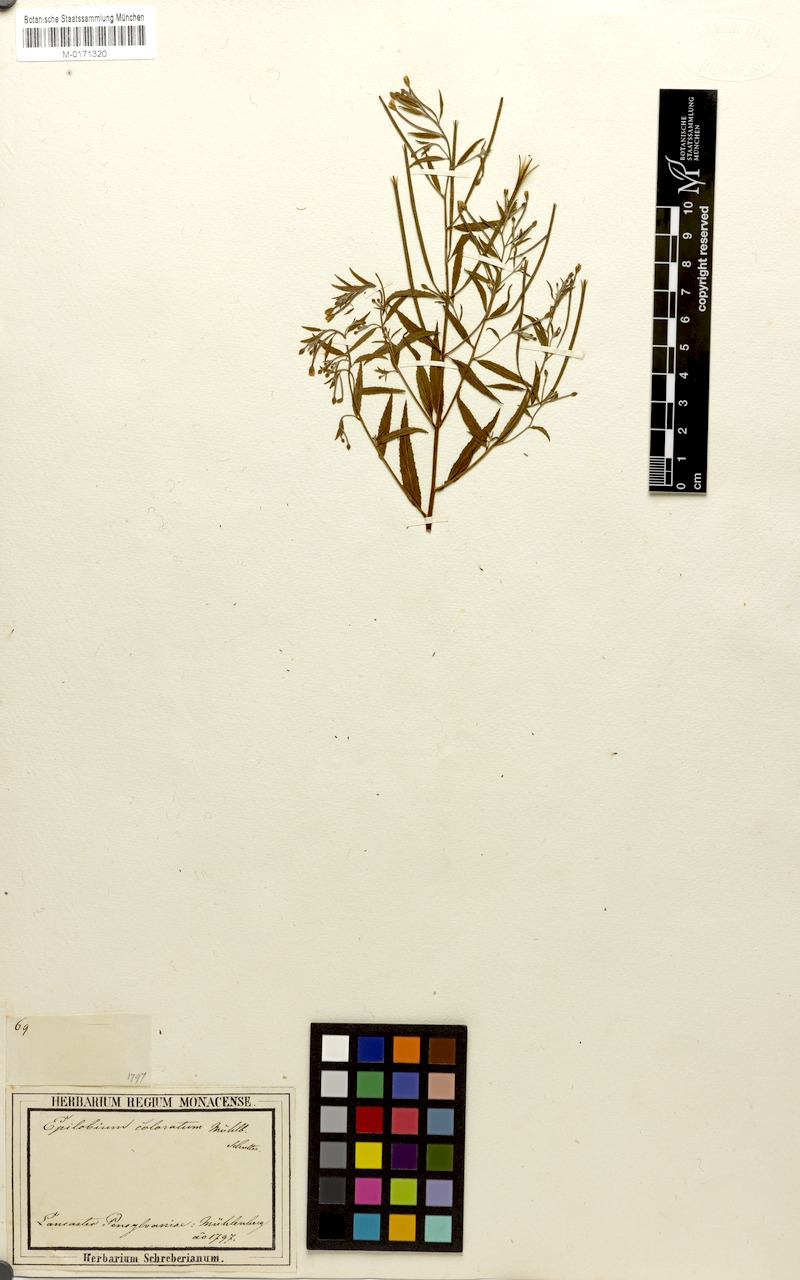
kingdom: Plantae
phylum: Tracheophyta
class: Magnoliopsida
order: Myrtales
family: Onagraceae
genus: Epilobium
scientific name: Epilobium coloratum
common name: Bronze willowherb
